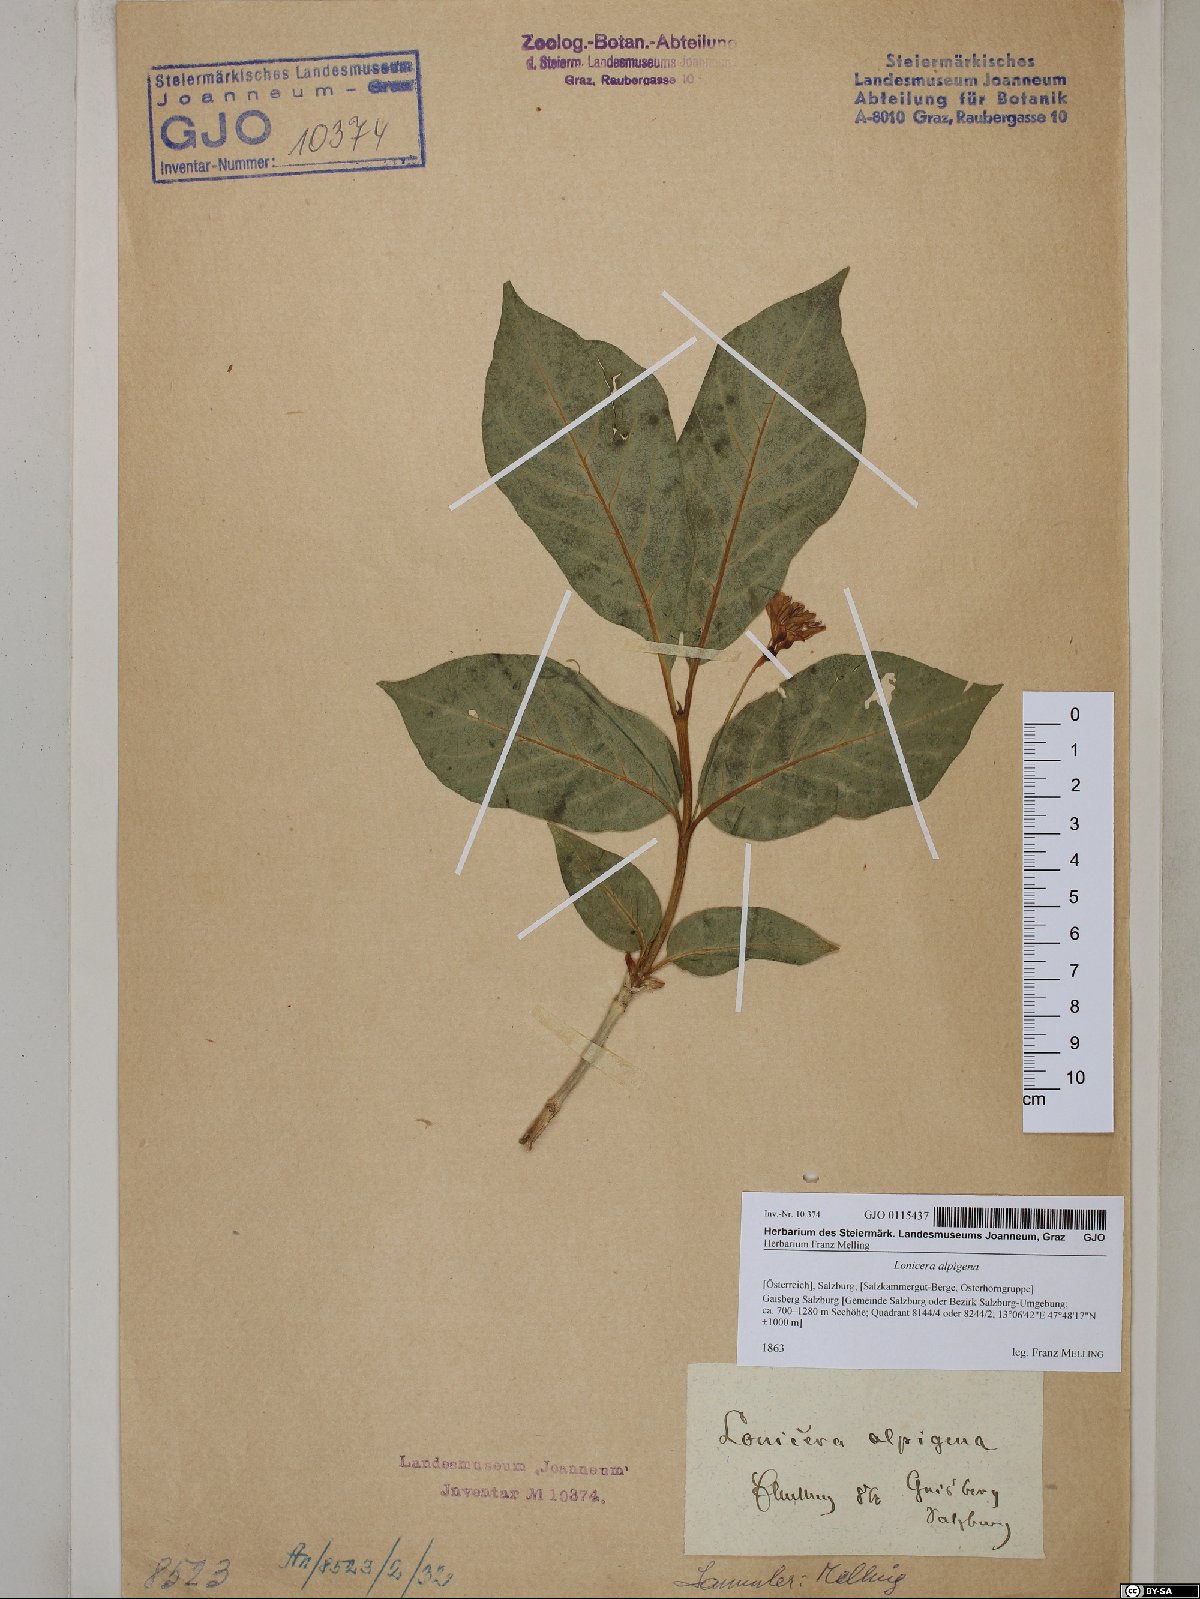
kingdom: Plantae
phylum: Tracheophyta
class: Magnoliopsida
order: Dipsacales
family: Caprifoliaceae
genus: Lonicera
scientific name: Lonicera alpigena
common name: Alpine honeysuckle
